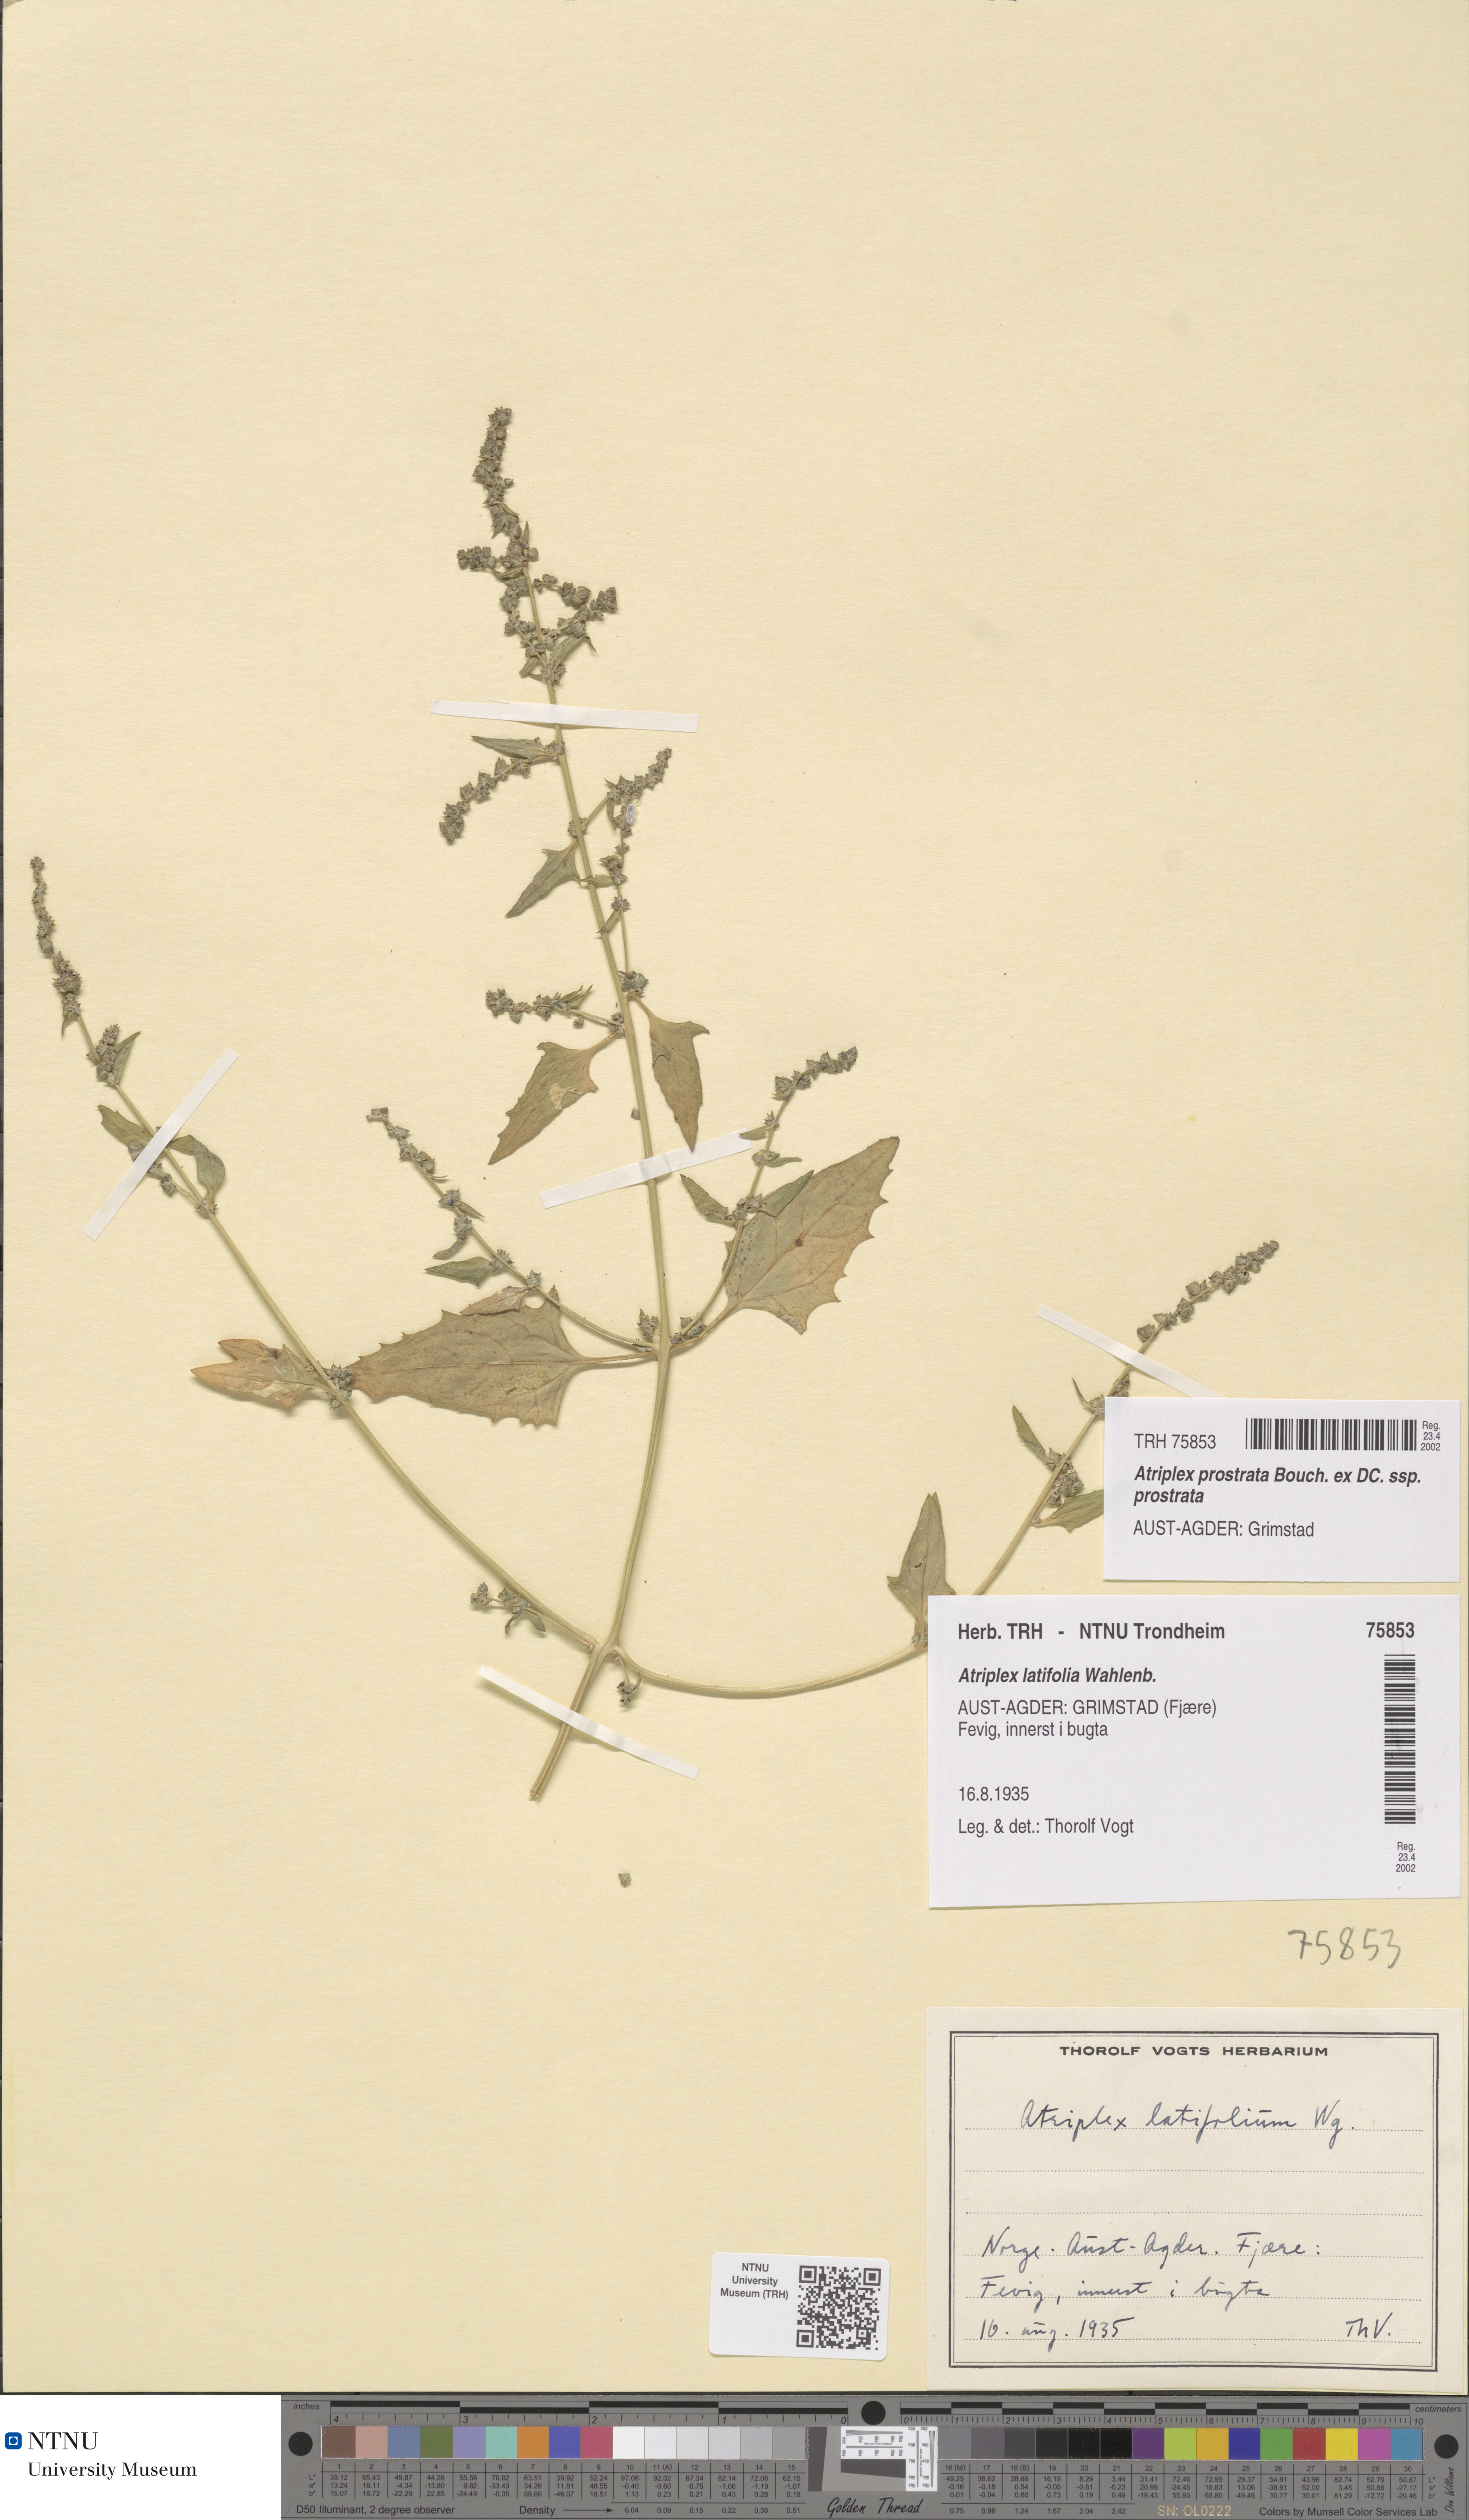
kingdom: Plantae
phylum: Tracheophyta
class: Magnoliopsida
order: Caryophyllales
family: Amaranthaceae
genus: Atriplex
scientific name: Atriplex prostrata
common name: Spear-leaved orache
